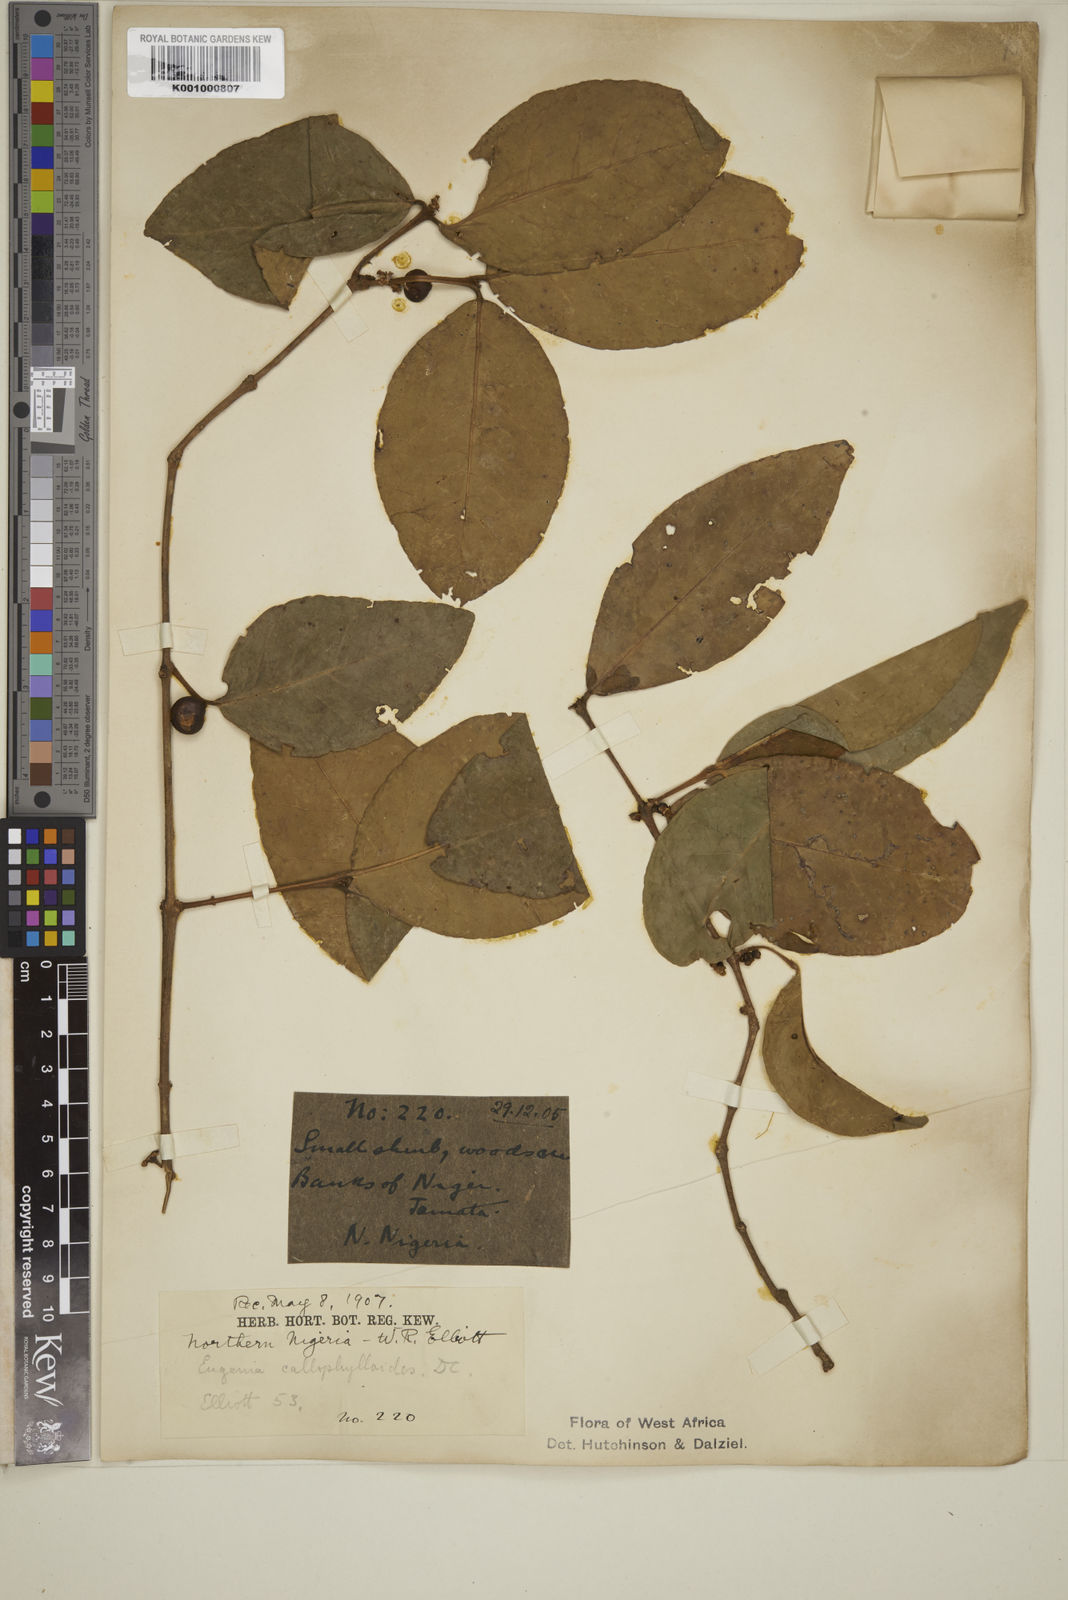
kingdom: Plantae
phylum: Tracheophyta
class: Magnoliopsida
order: Myrtales
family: Myrtaceae
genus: Eugenia
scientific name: Eugenia calophylloides
